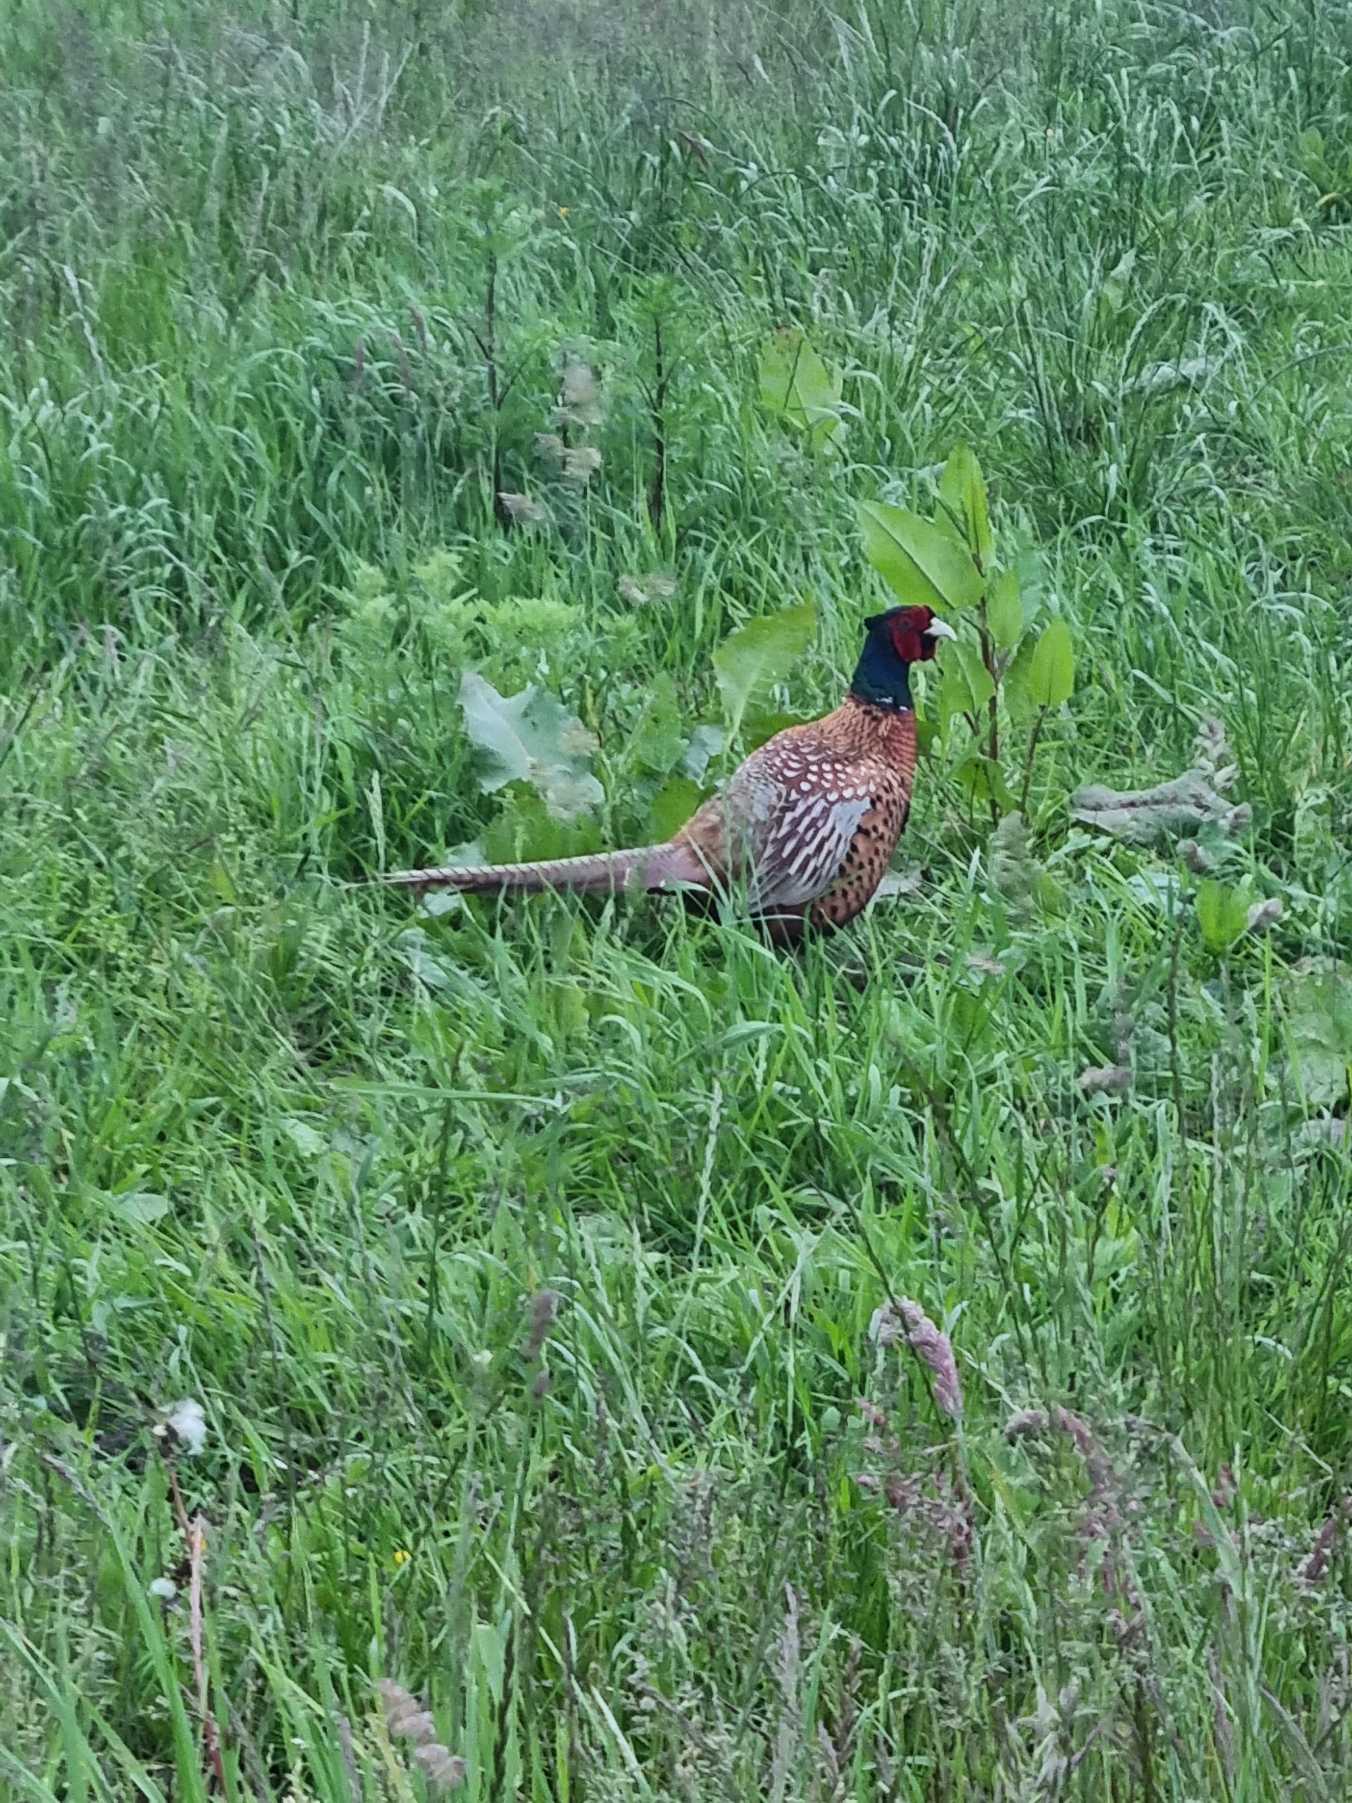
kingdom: Animalia
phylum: Chordata
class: Aves
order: Galliformes
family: Phasianidae
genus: Phasianus
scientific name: Phasianus colchicus
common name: Fasan
